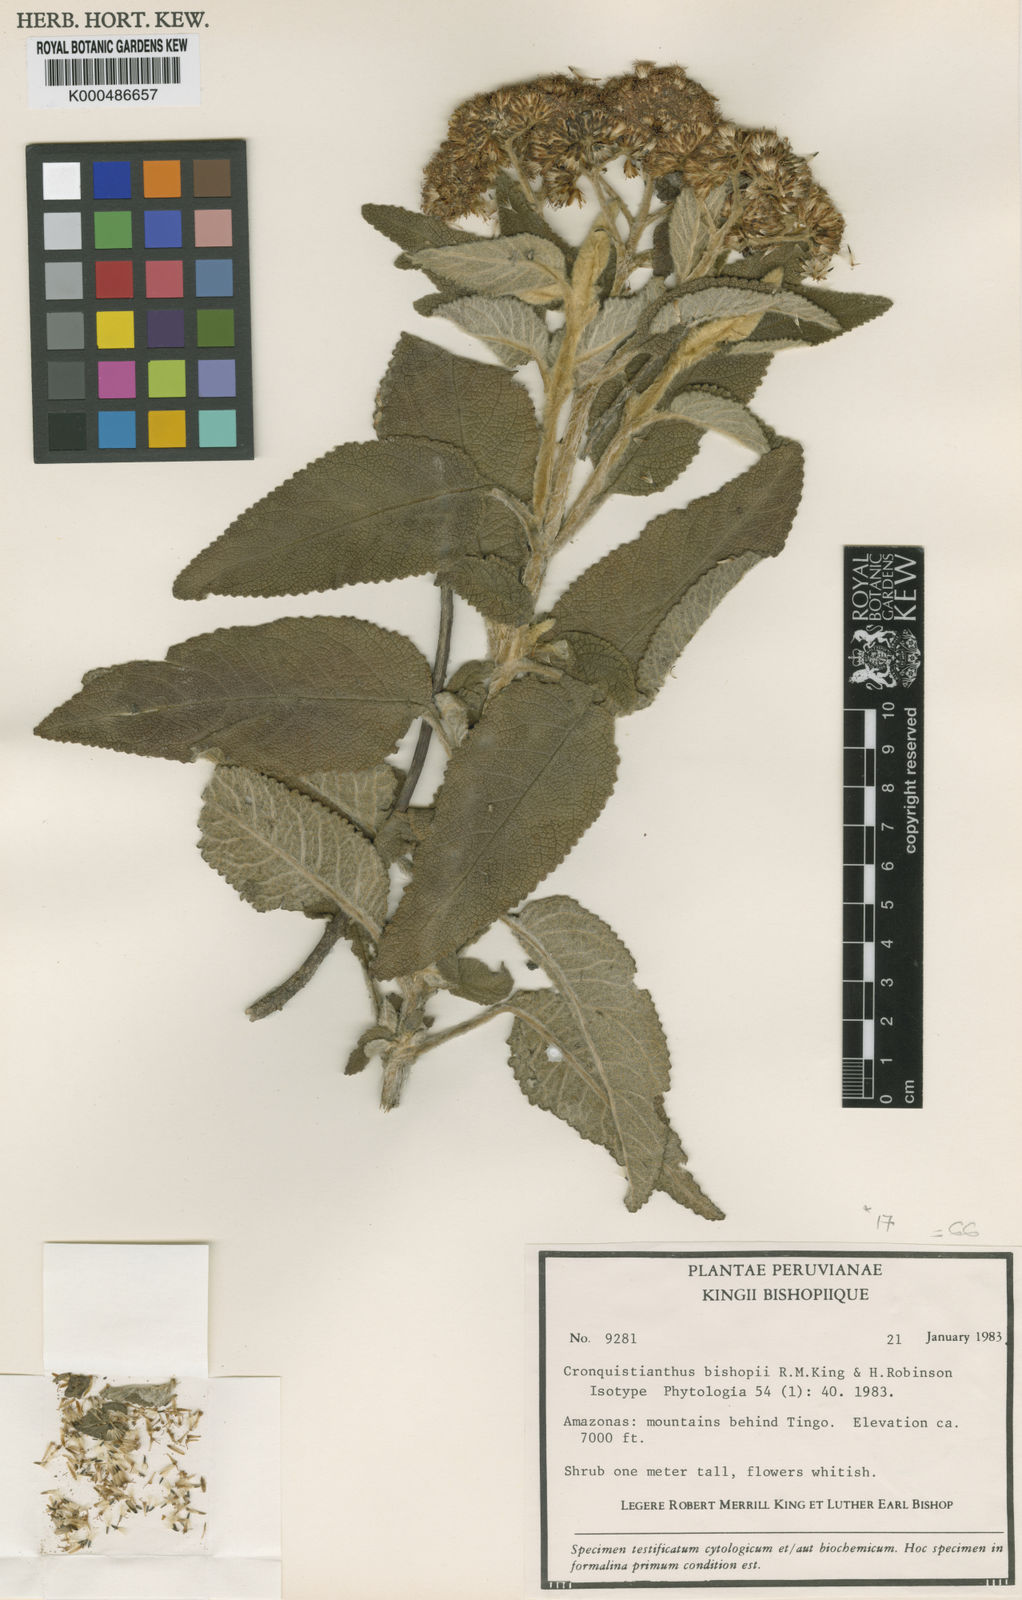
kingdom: Plantae
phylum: Tracheophyta
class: Magnoliopsida
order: Asterales
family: Asteraceae
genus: Cronquistianthus
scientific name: Cronquistianthus bishopii
